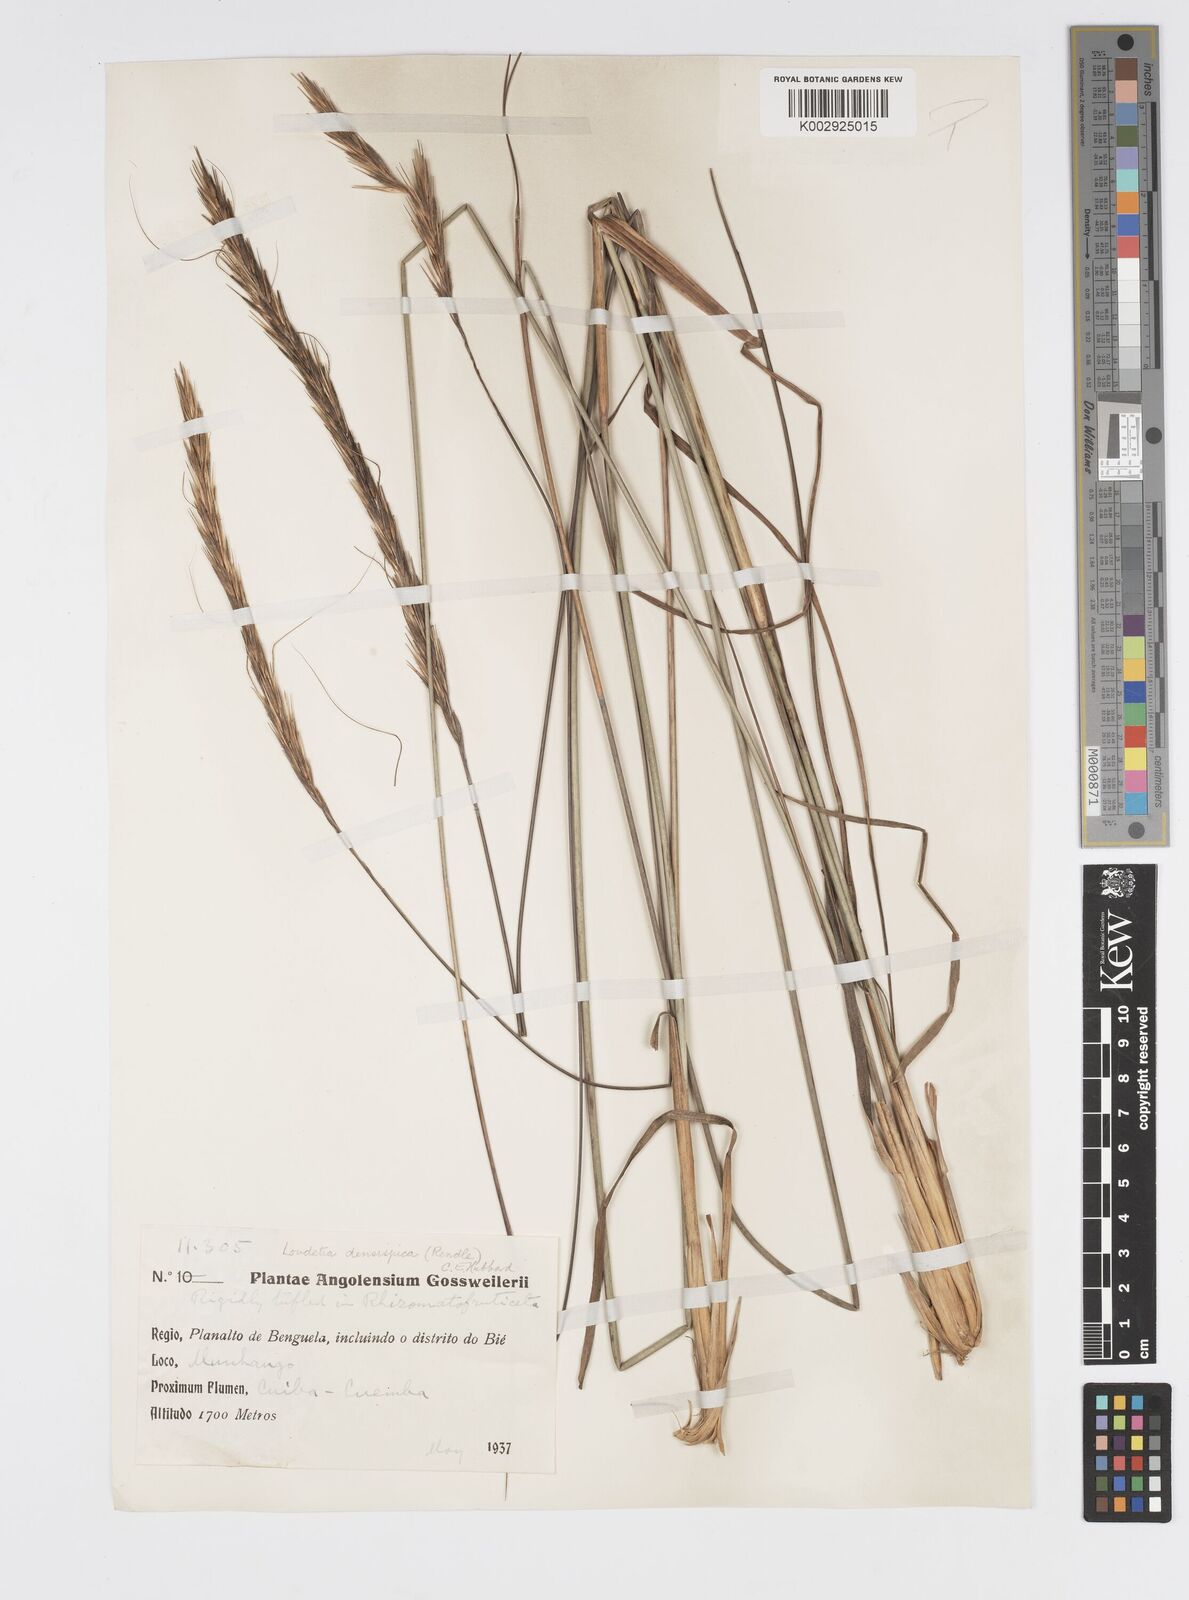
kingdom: Plantae
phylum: Tracheophyta
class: Liliopsida
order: Poales
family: Poaceae
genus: Loudetia
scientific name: Loudetia densispica
